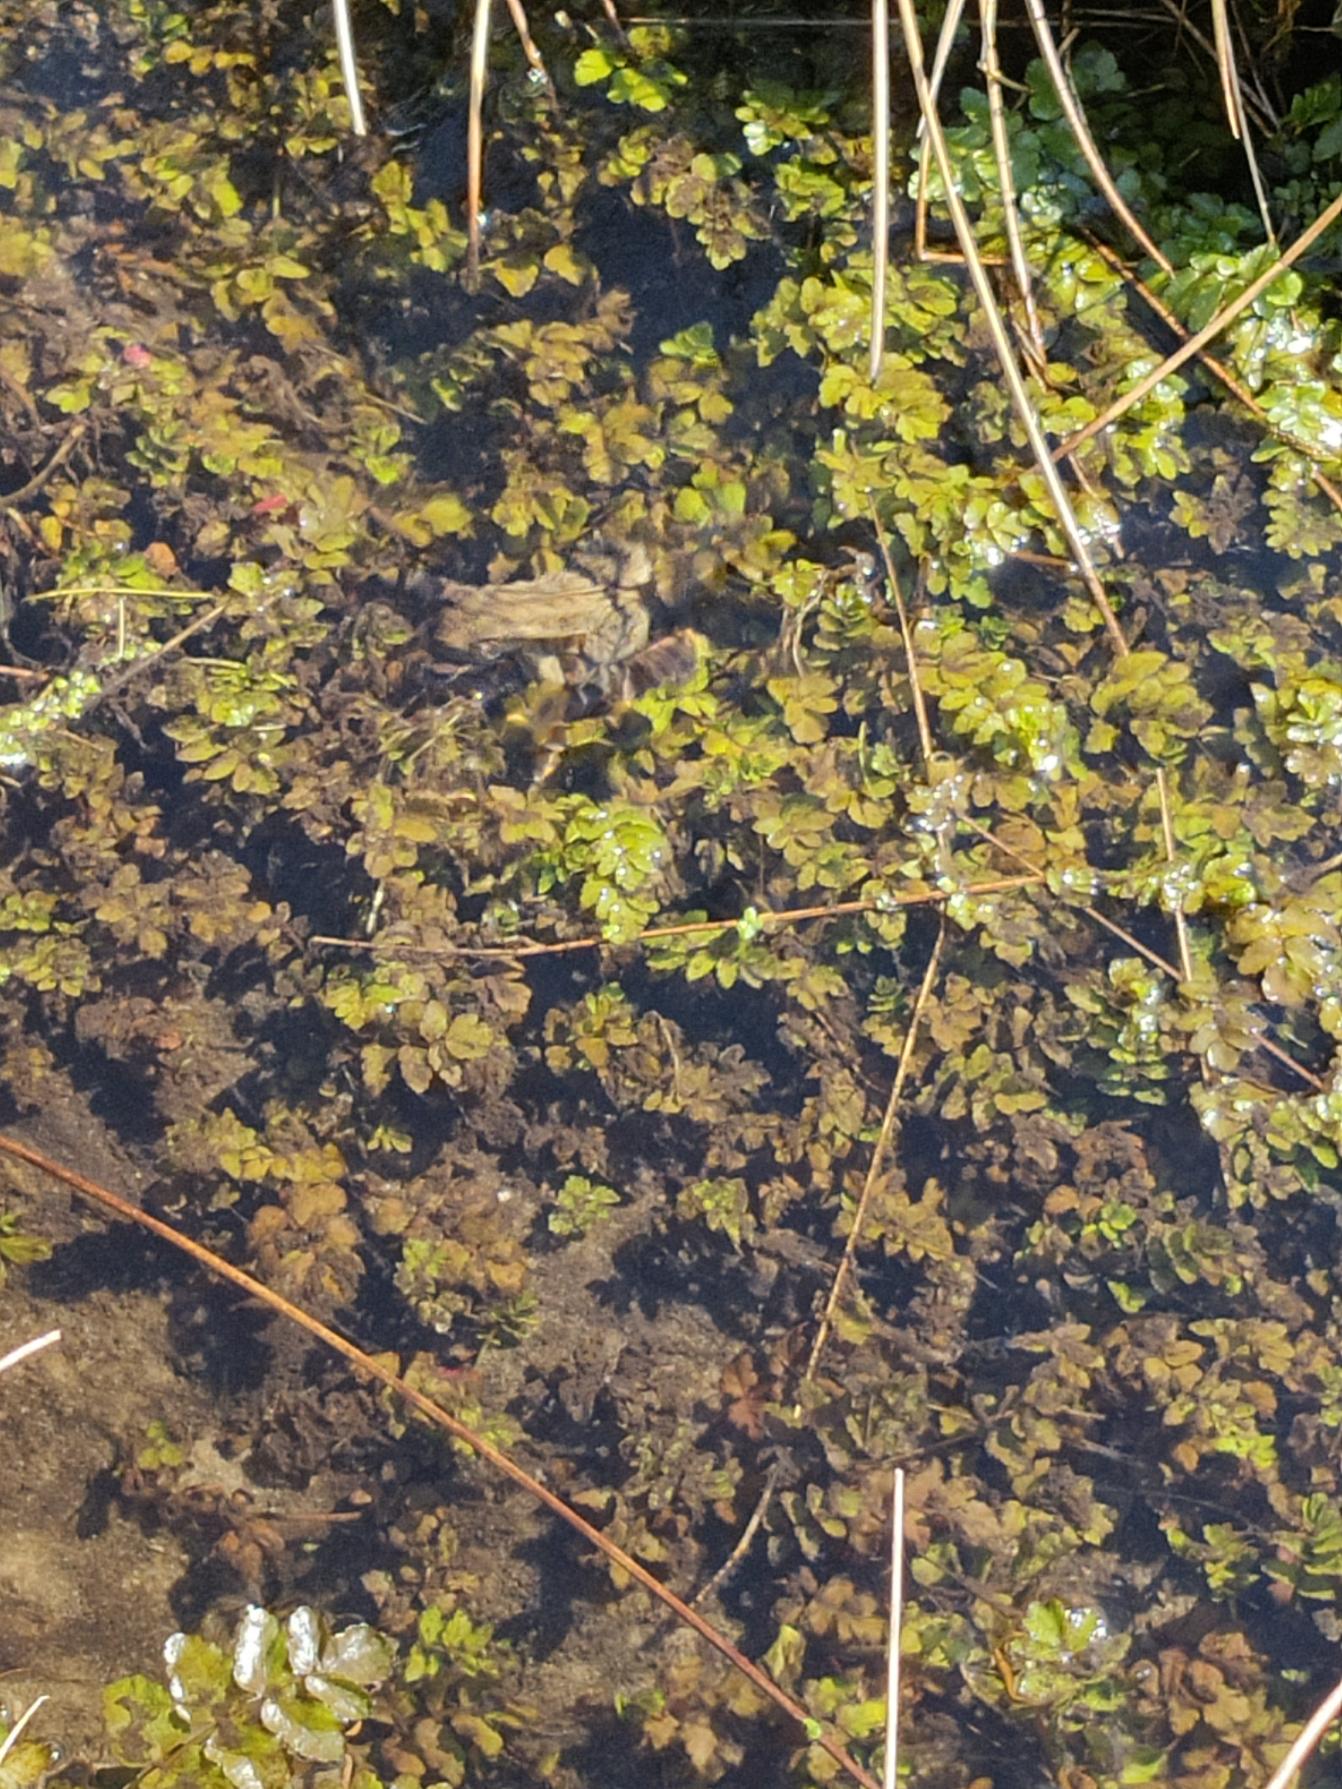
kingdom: Animalia
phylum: Chordata
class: Amphibia
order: Anura
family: Bufonidae
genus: Bufo
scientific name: Bufo bufo
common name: Skrubtudse
